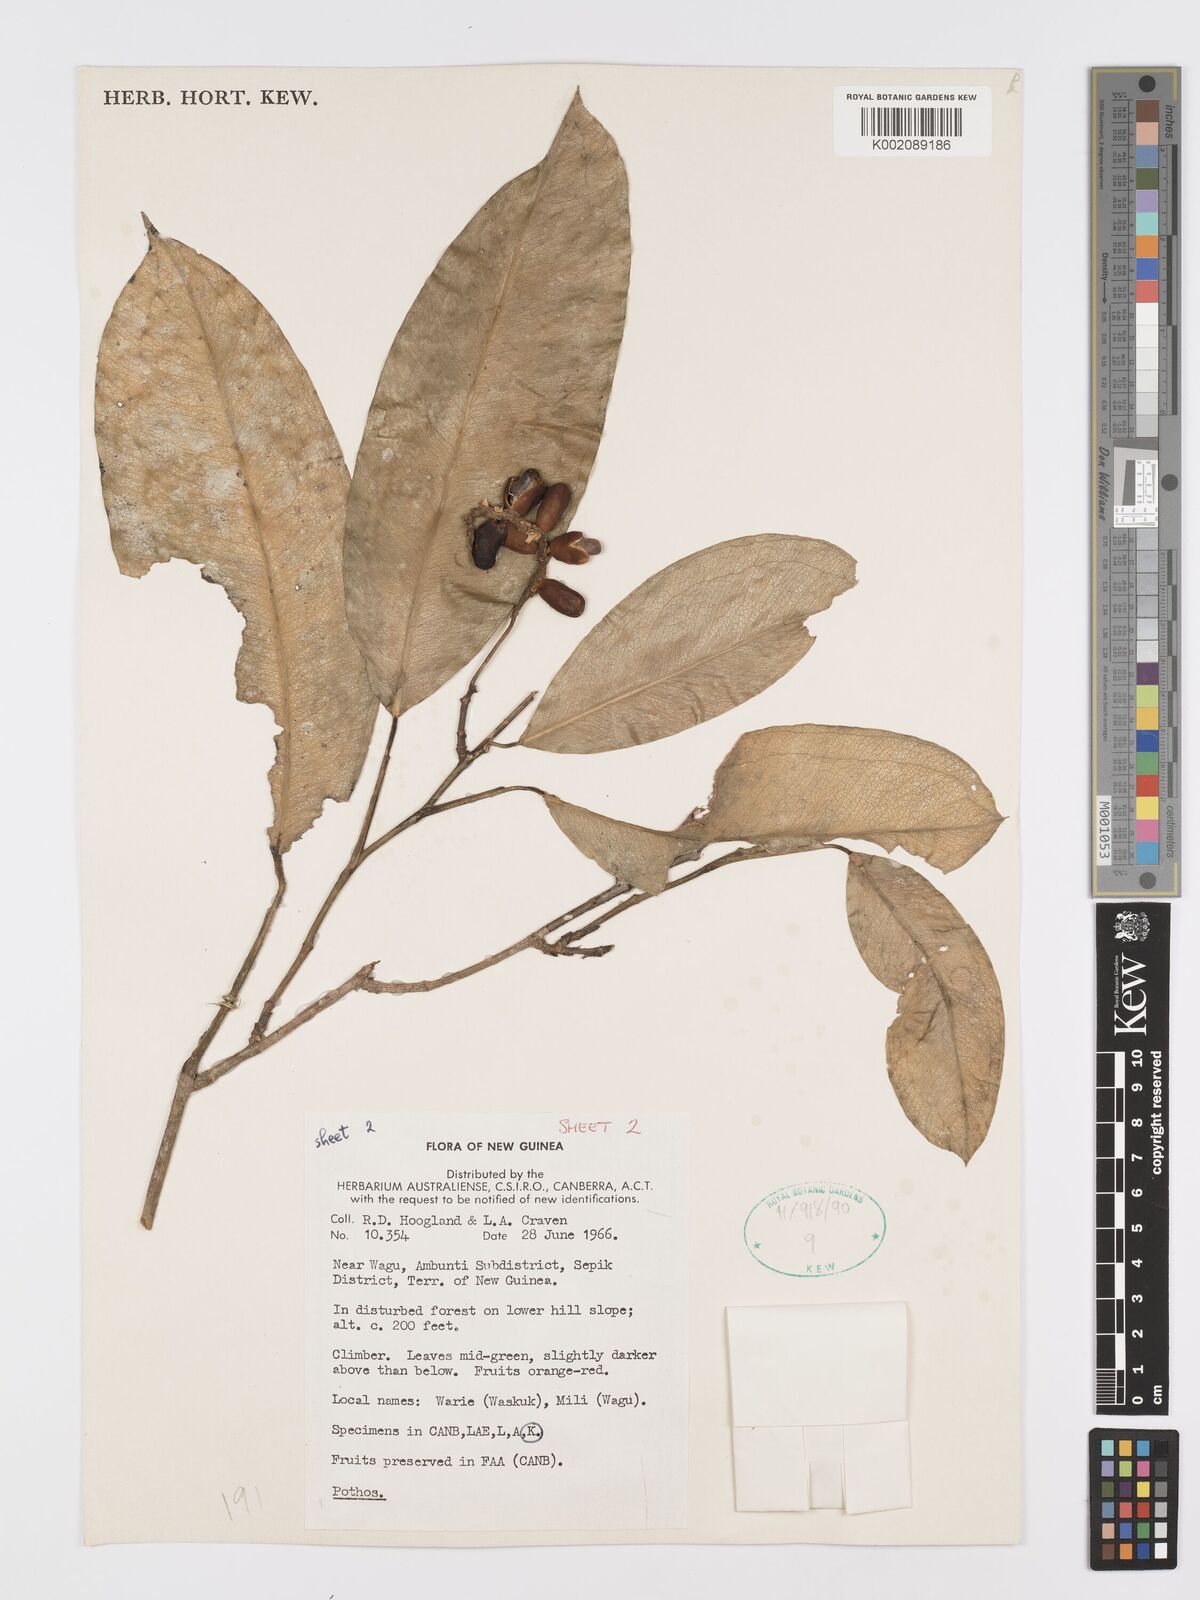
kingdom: Plantae
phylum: Tracheophyta
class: Liliopsida
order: Alismatales
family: Araceae
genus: Pothos
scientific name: Pothos
